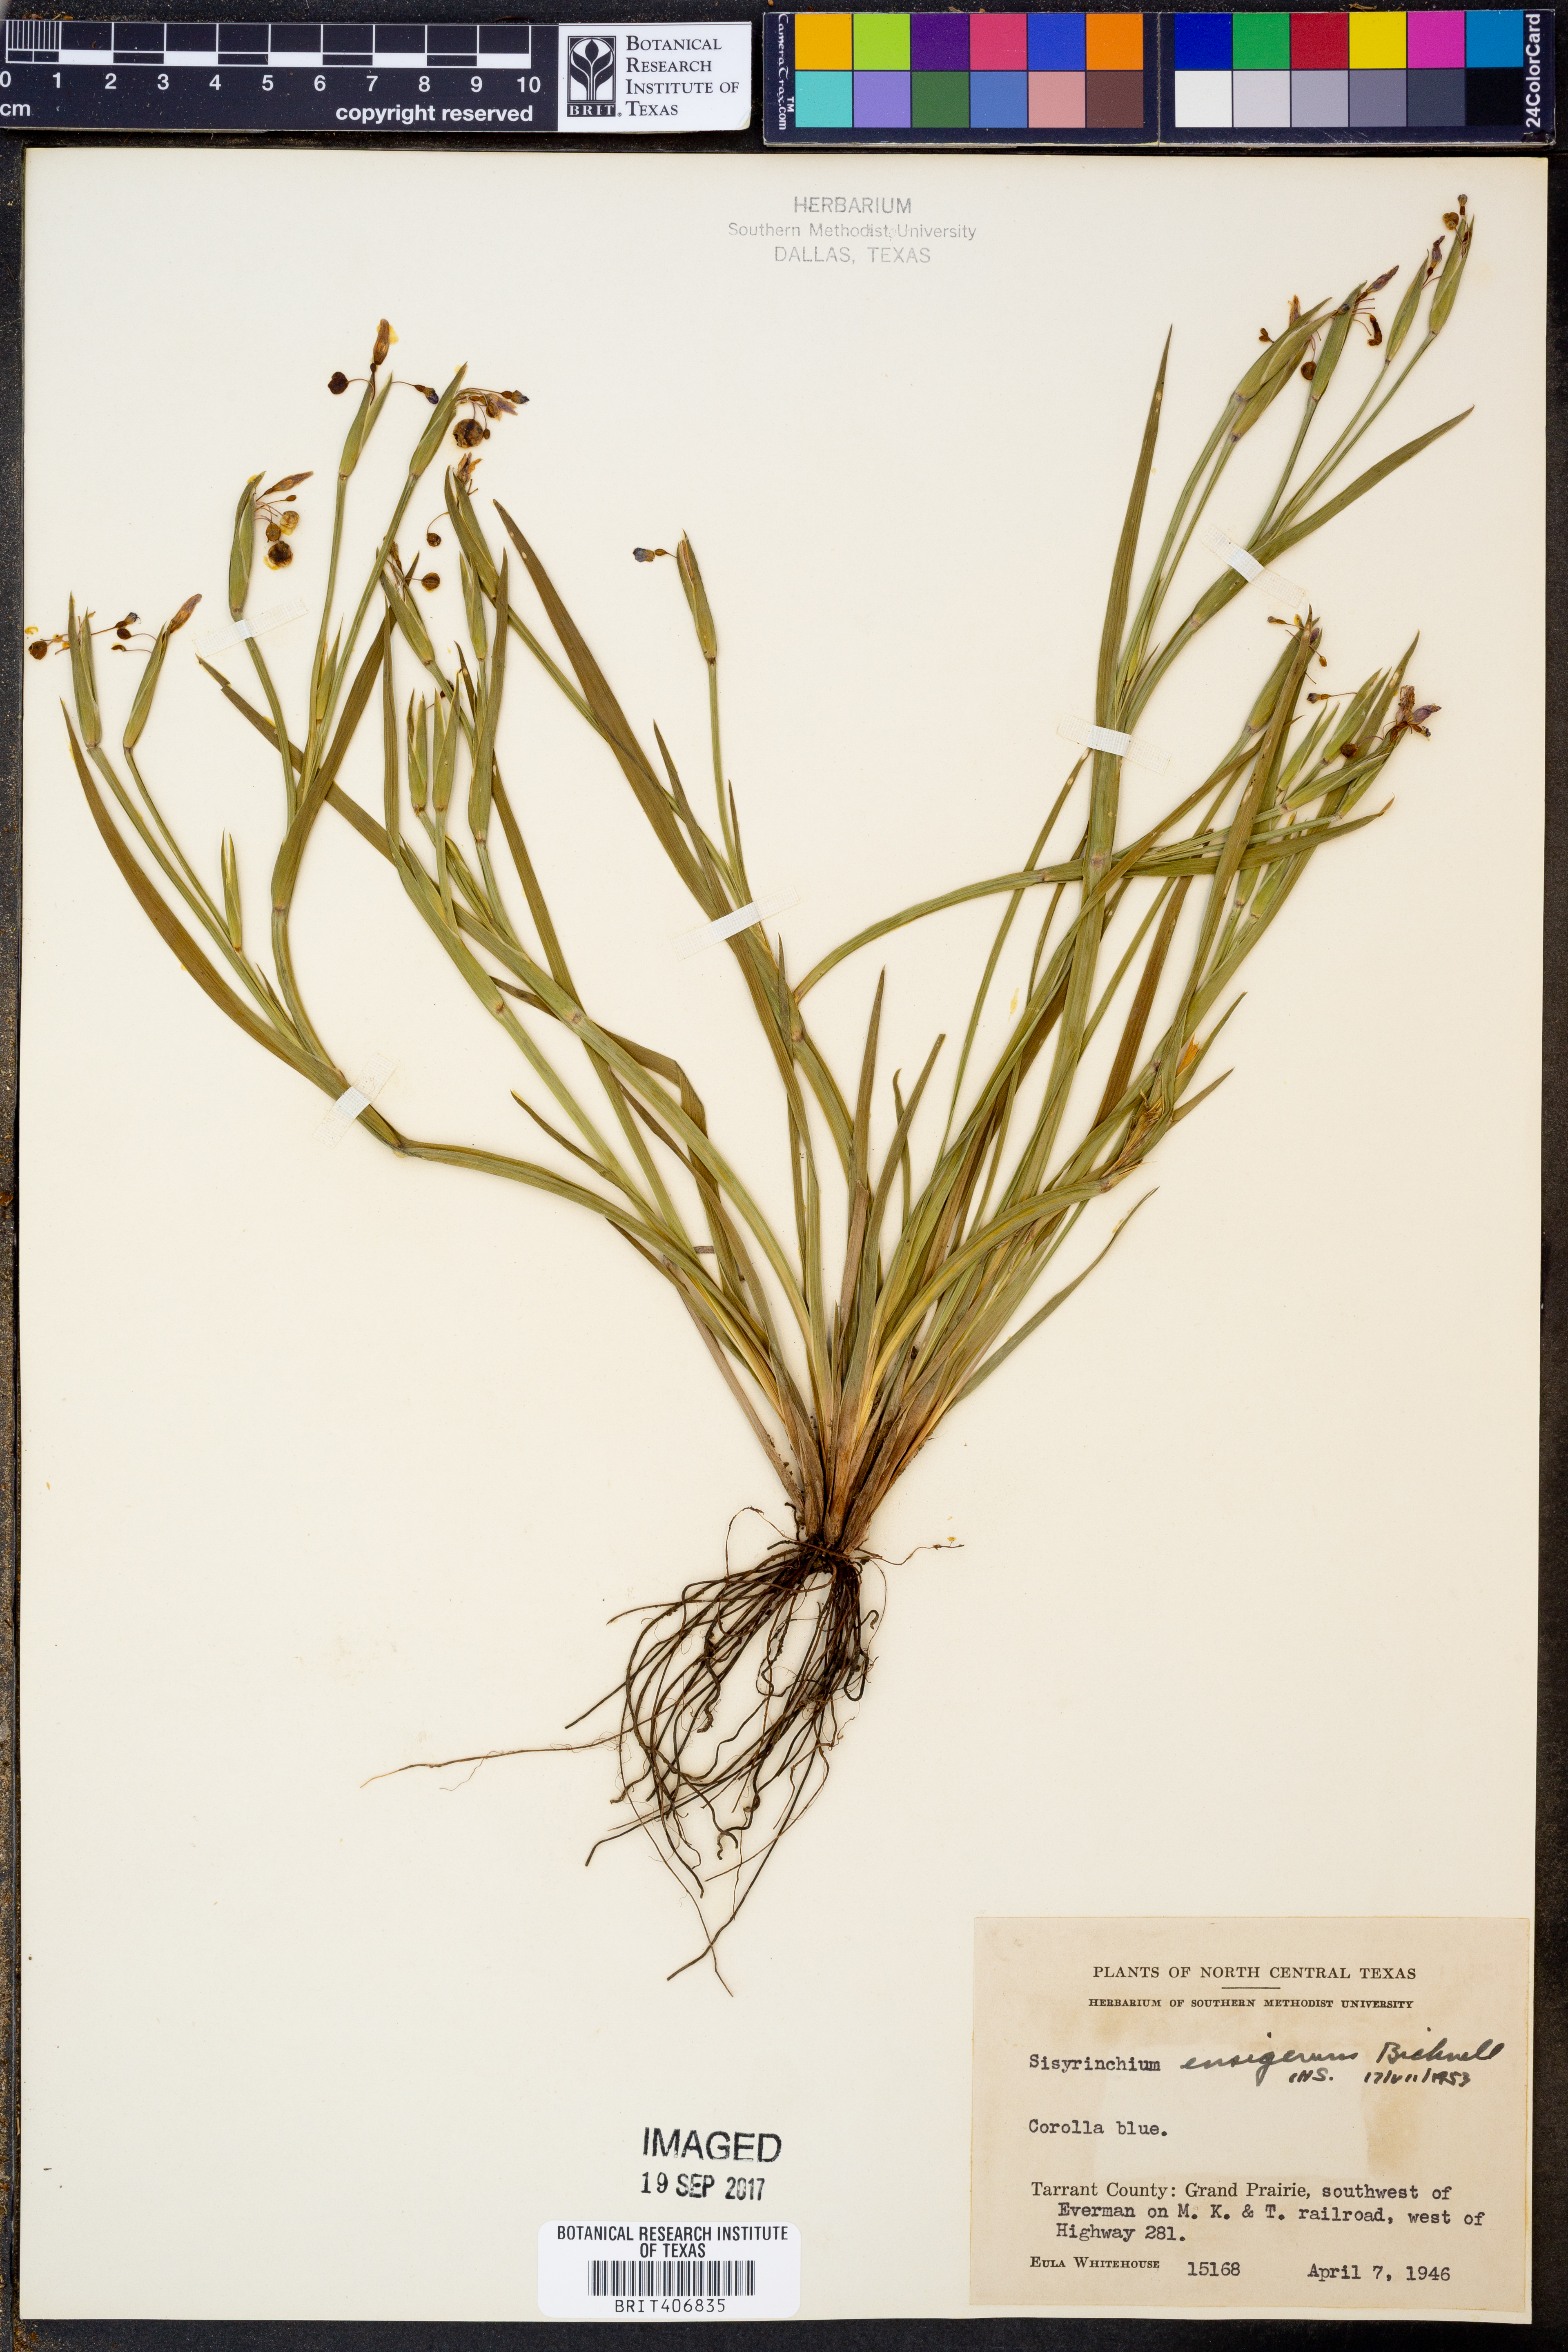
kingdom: Plantae
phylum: Tracheophyta
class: Liliopsida
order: Asparagales
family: Iridaceae
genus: Sisyrinchium
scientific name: Sisyrinchium ensigerum
